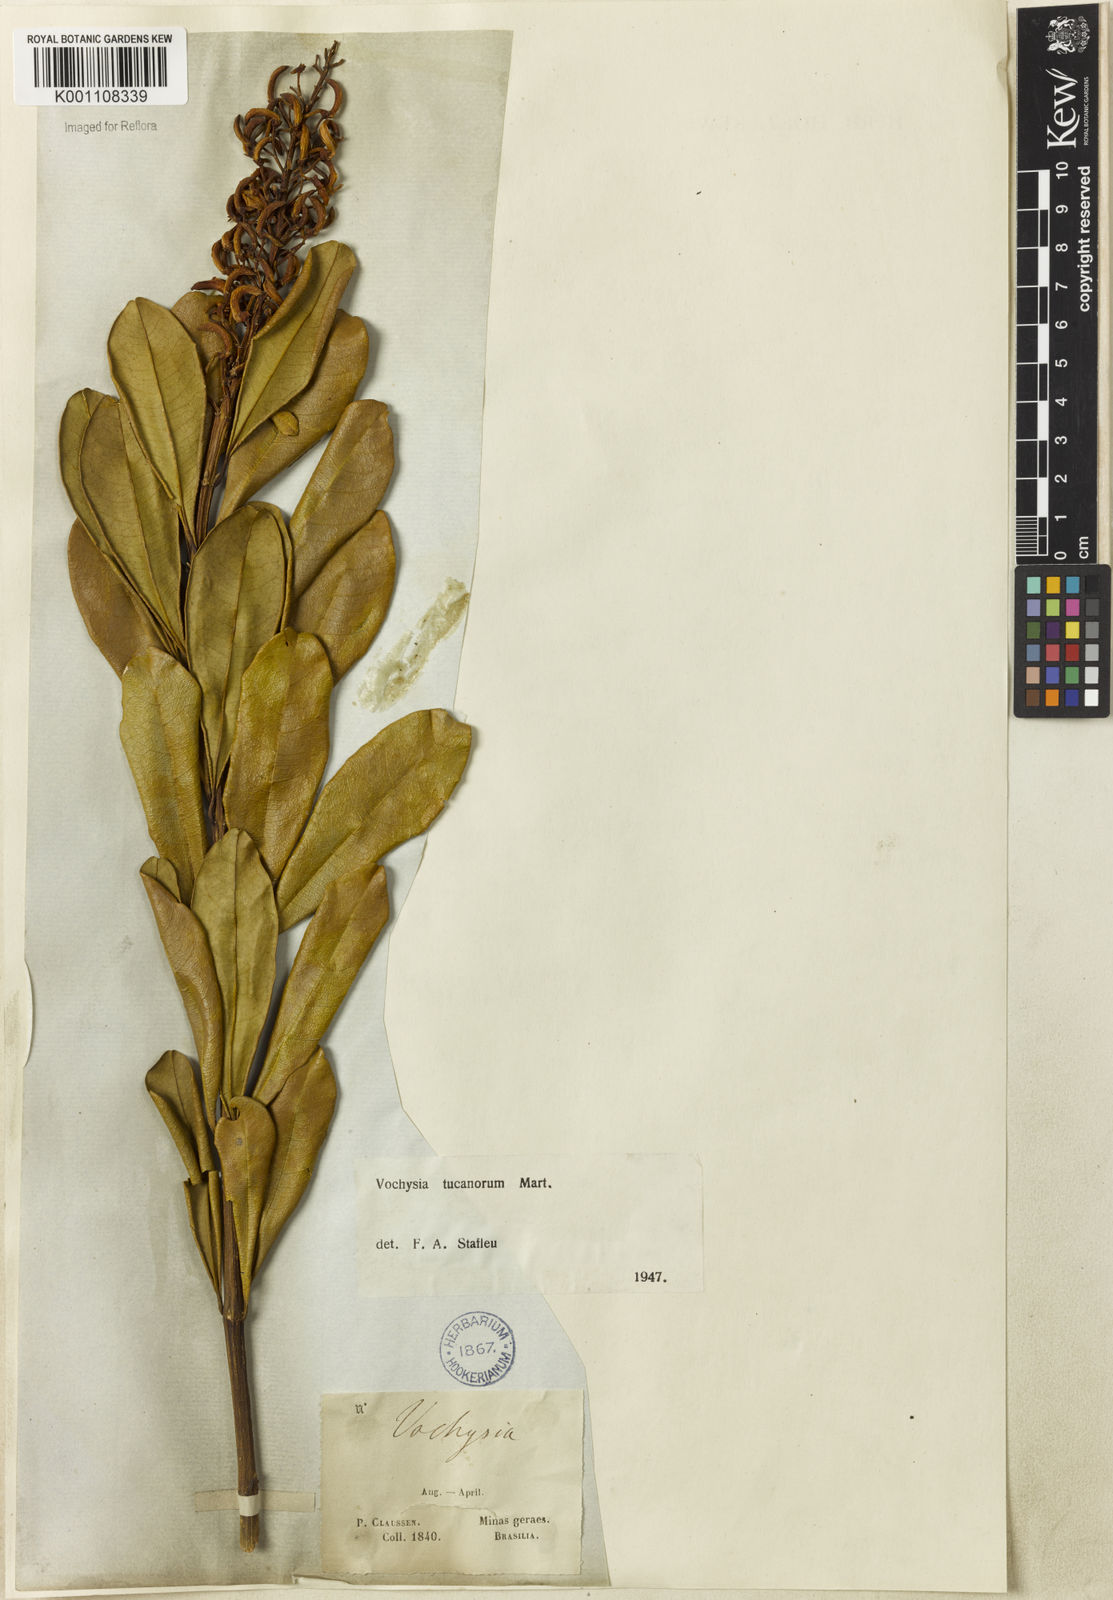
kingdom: Plantae
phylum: Tracheophyta
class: Magnoliopsida
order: Myrtales
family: Vochysiaceae
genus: Vochysia
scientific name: Vochysia tucanorum
